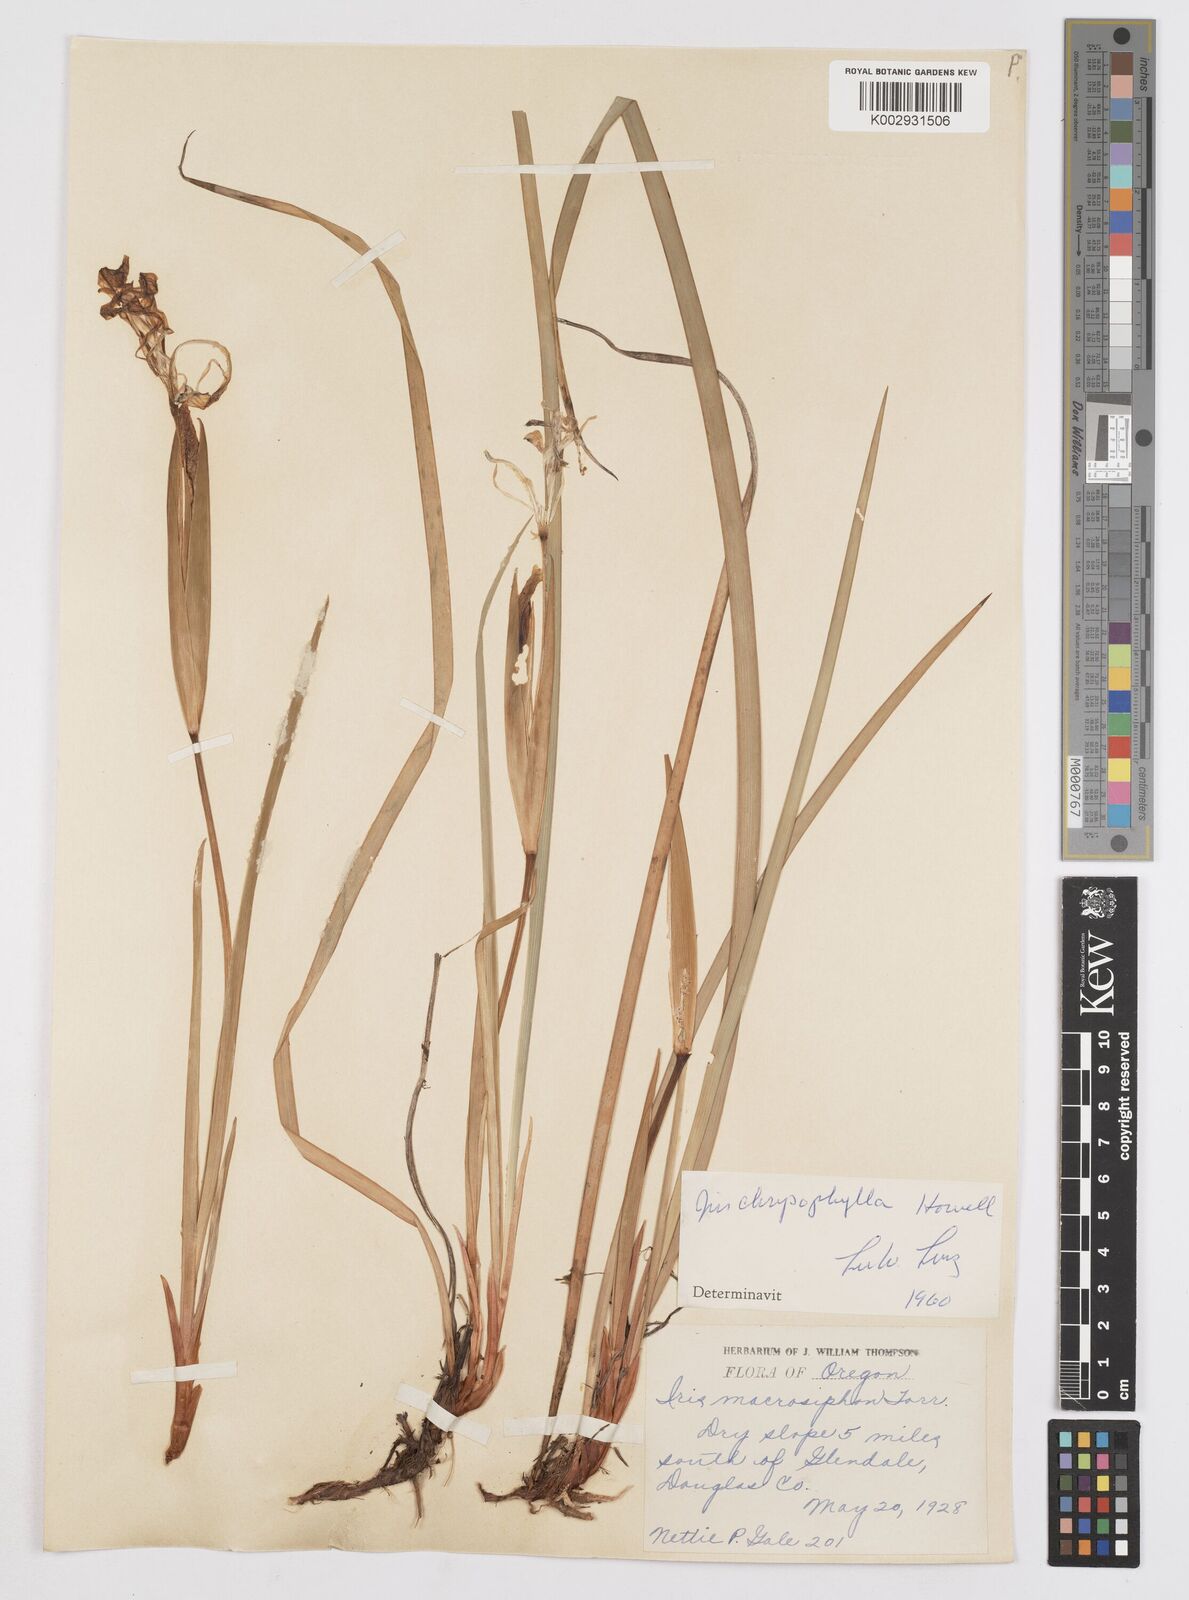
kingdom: Plantae
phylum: Tracheophyta
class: Liliopsida
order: Asparagales
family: Iridaceae
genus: Iris
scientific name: Iris chrysophylla
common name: Yellow-leaf iris
